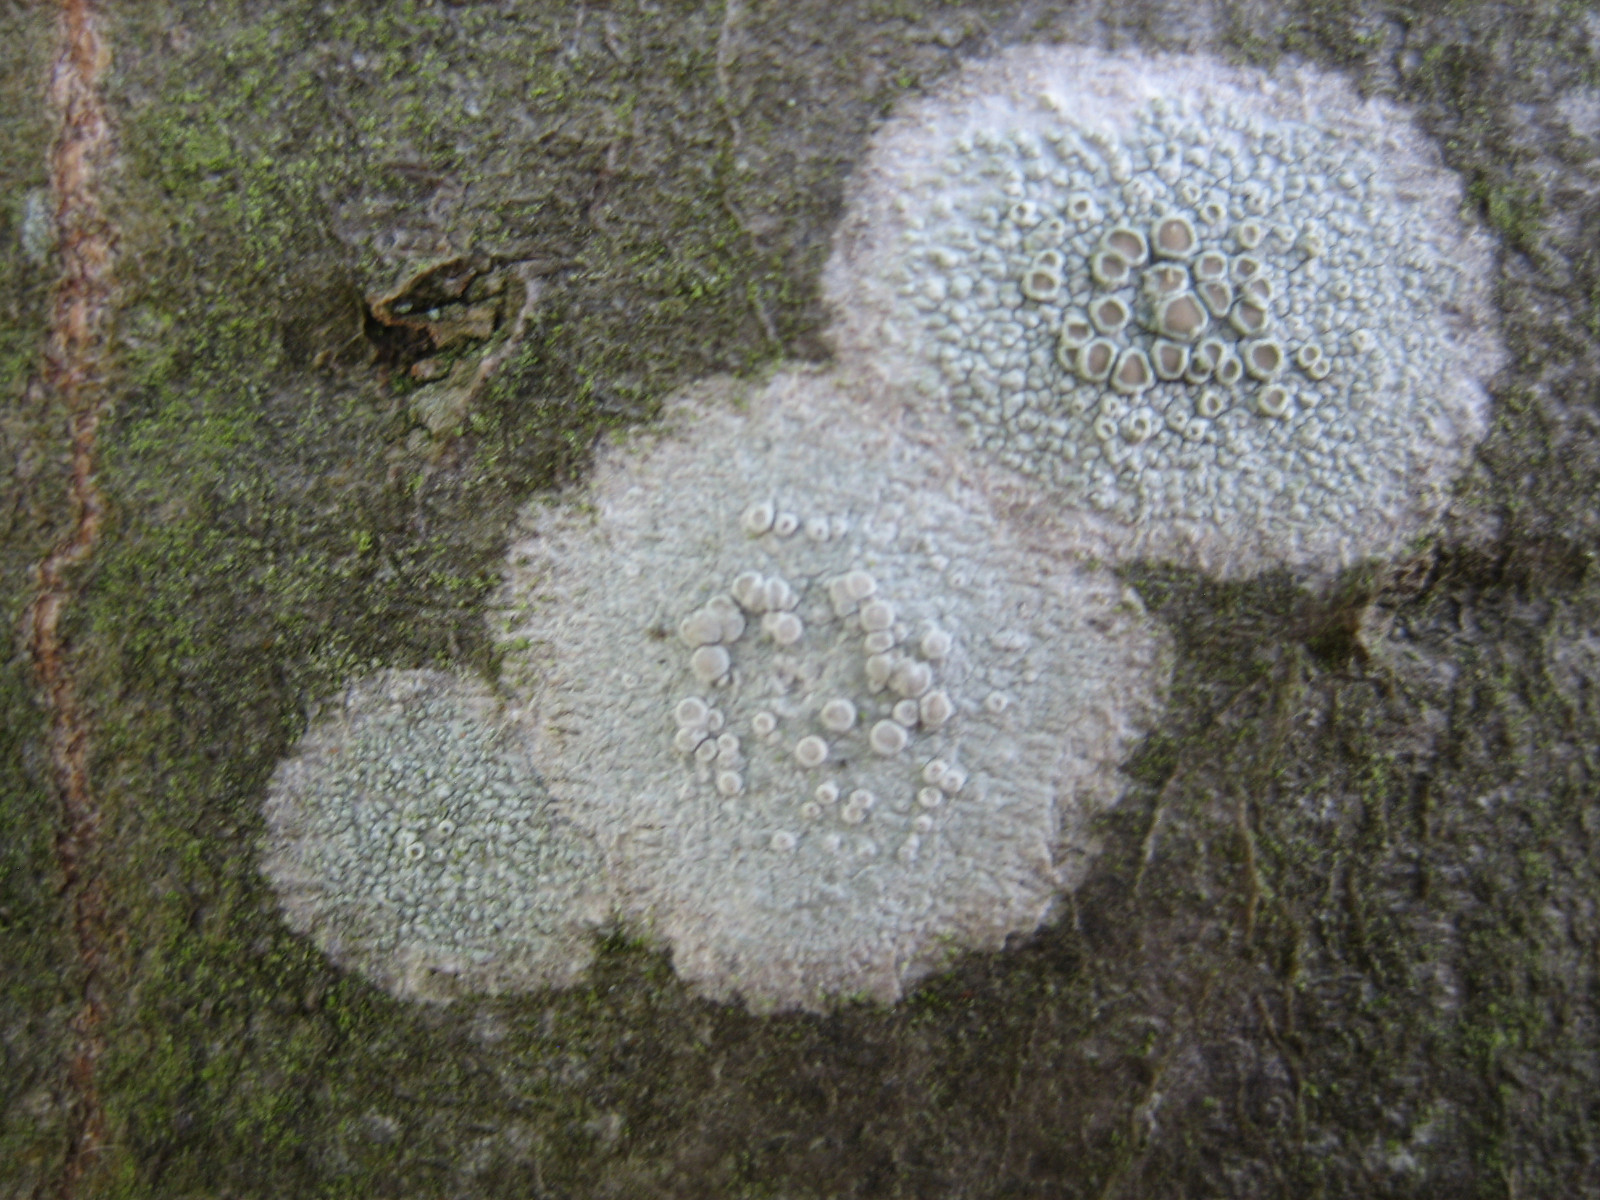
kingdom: Fungi
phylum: Ascomycota
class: Lecanoromycetes
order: Lecanorales
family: Lecanoraceae
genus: Glaucomaria
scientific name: Glaucomaria carpinea
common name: hviddugget kantskivelav
